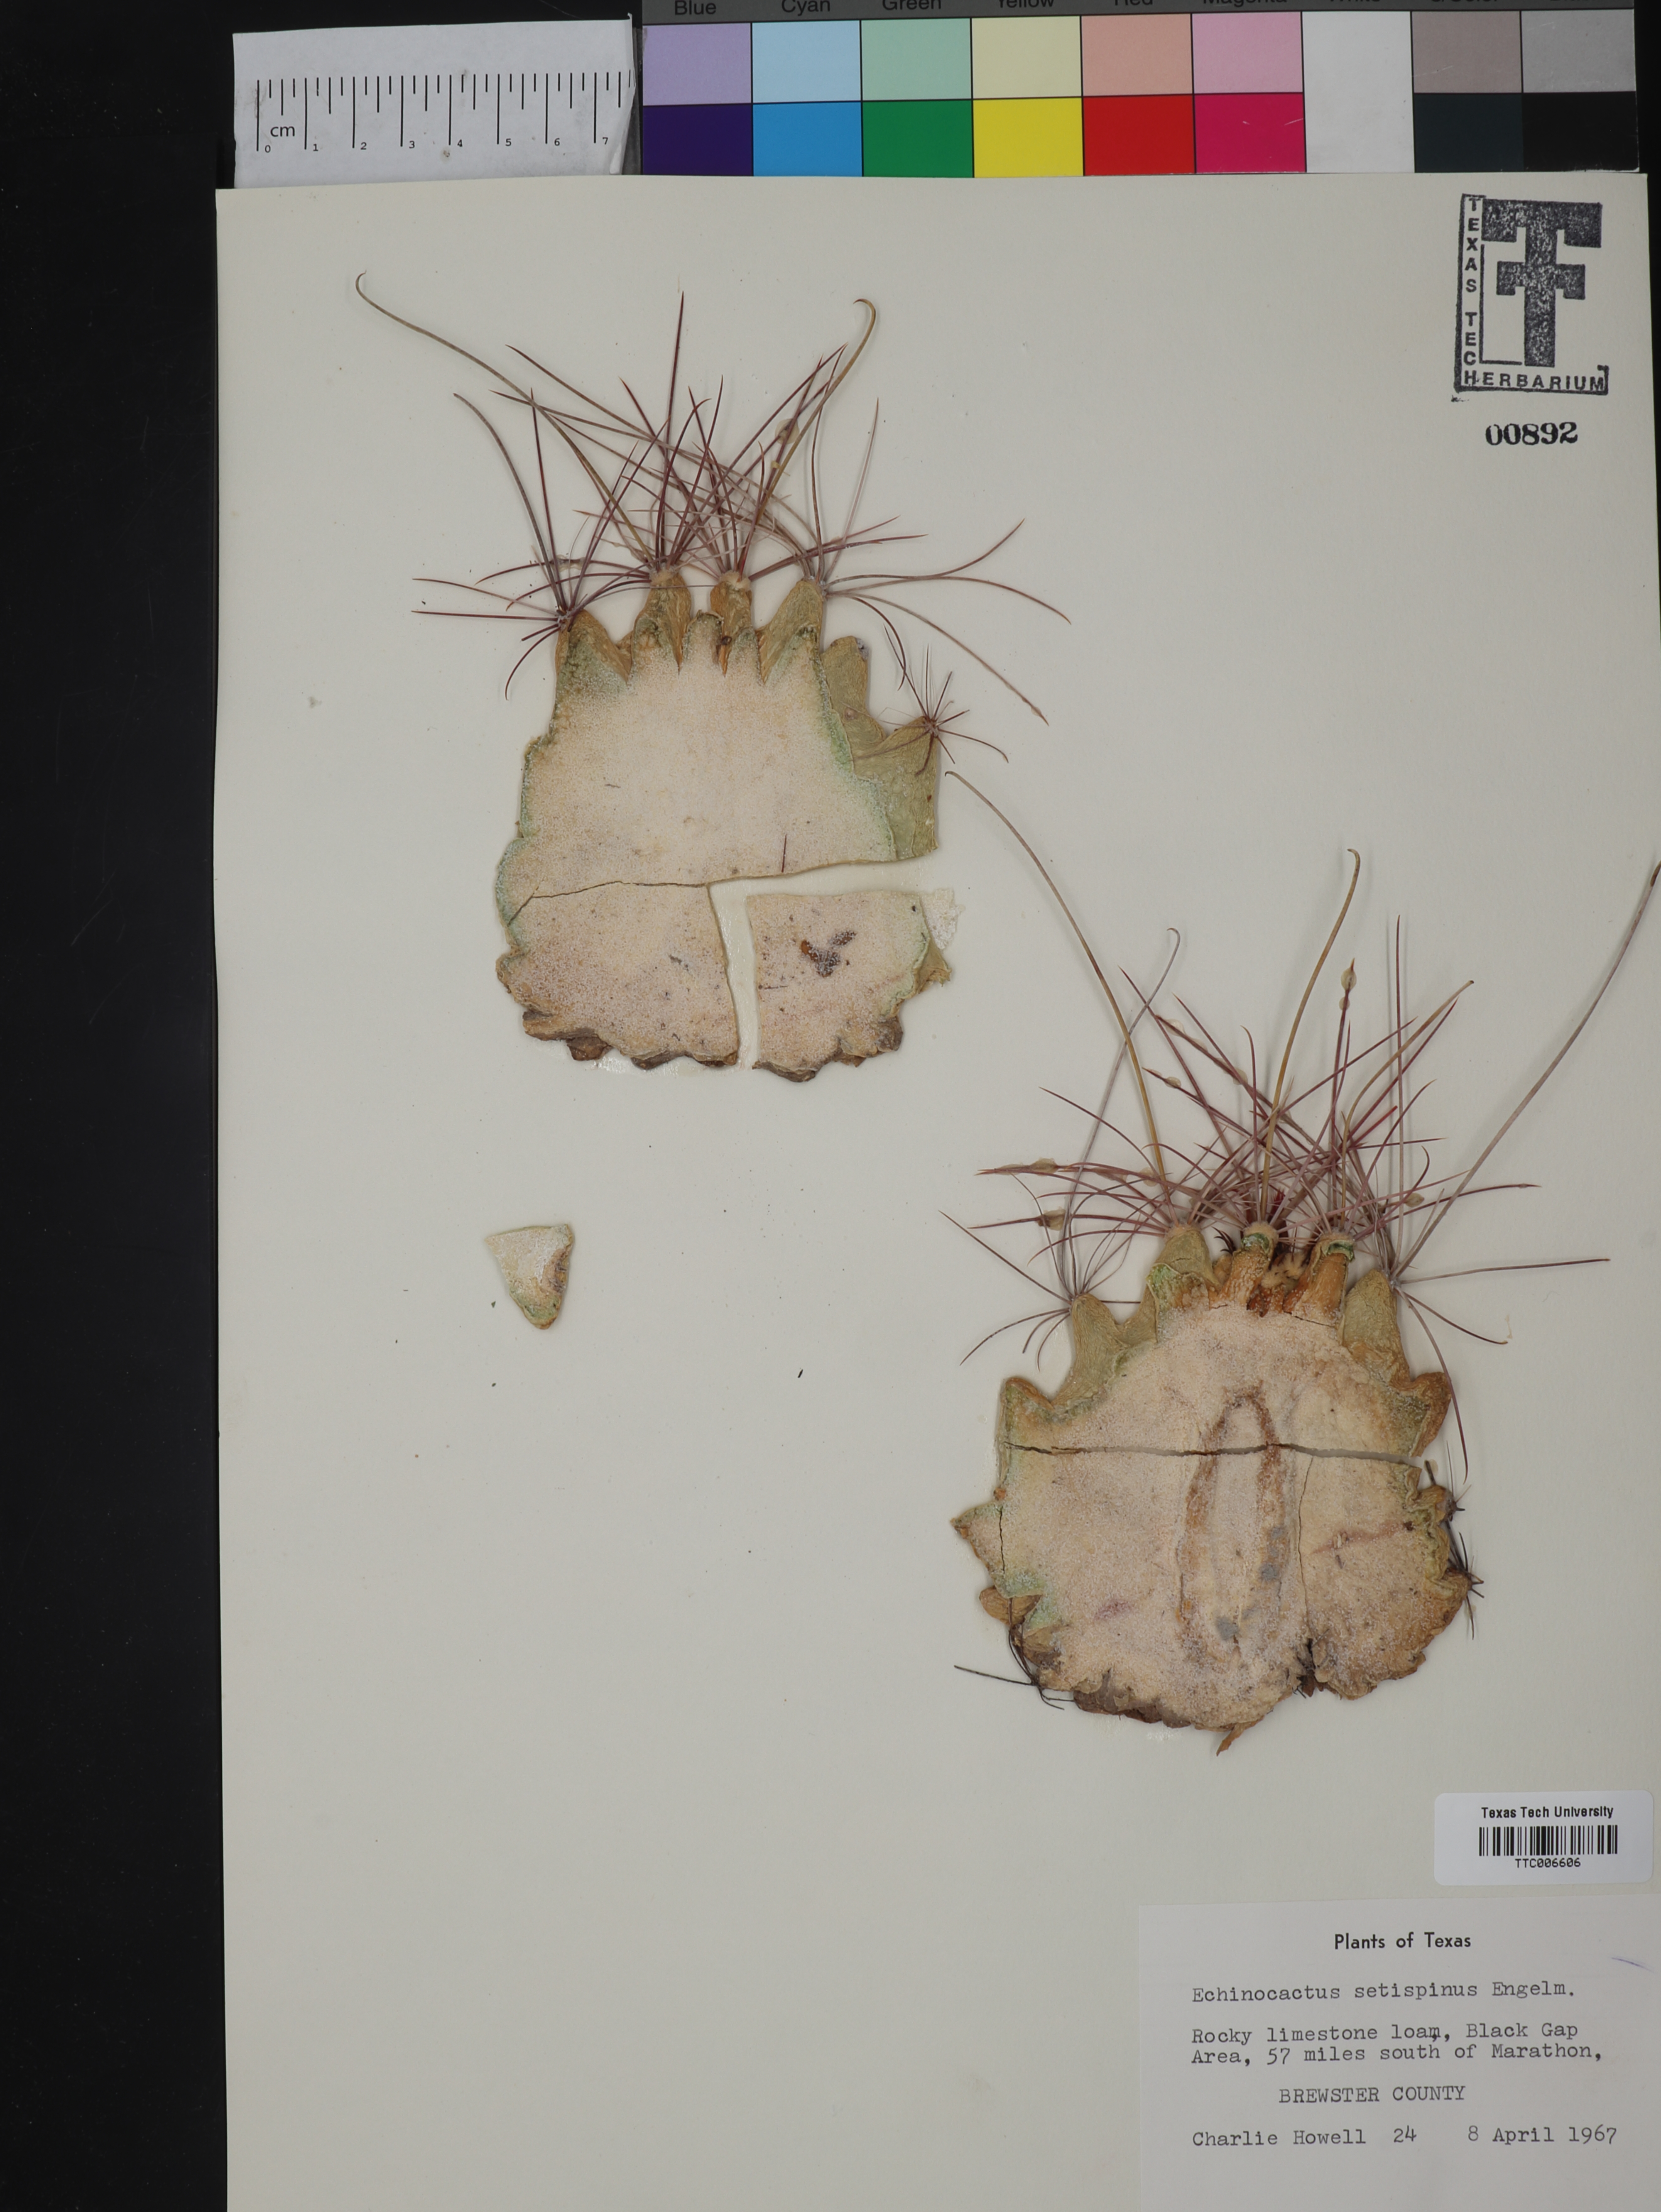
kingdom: Plantae
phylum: Tracheophyta
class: Magnoliopsida
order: Caryophyllales
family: Cactaceae
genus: Thelocactus
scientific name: Thelocactus setispinus
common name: Miniature barrel cactus
